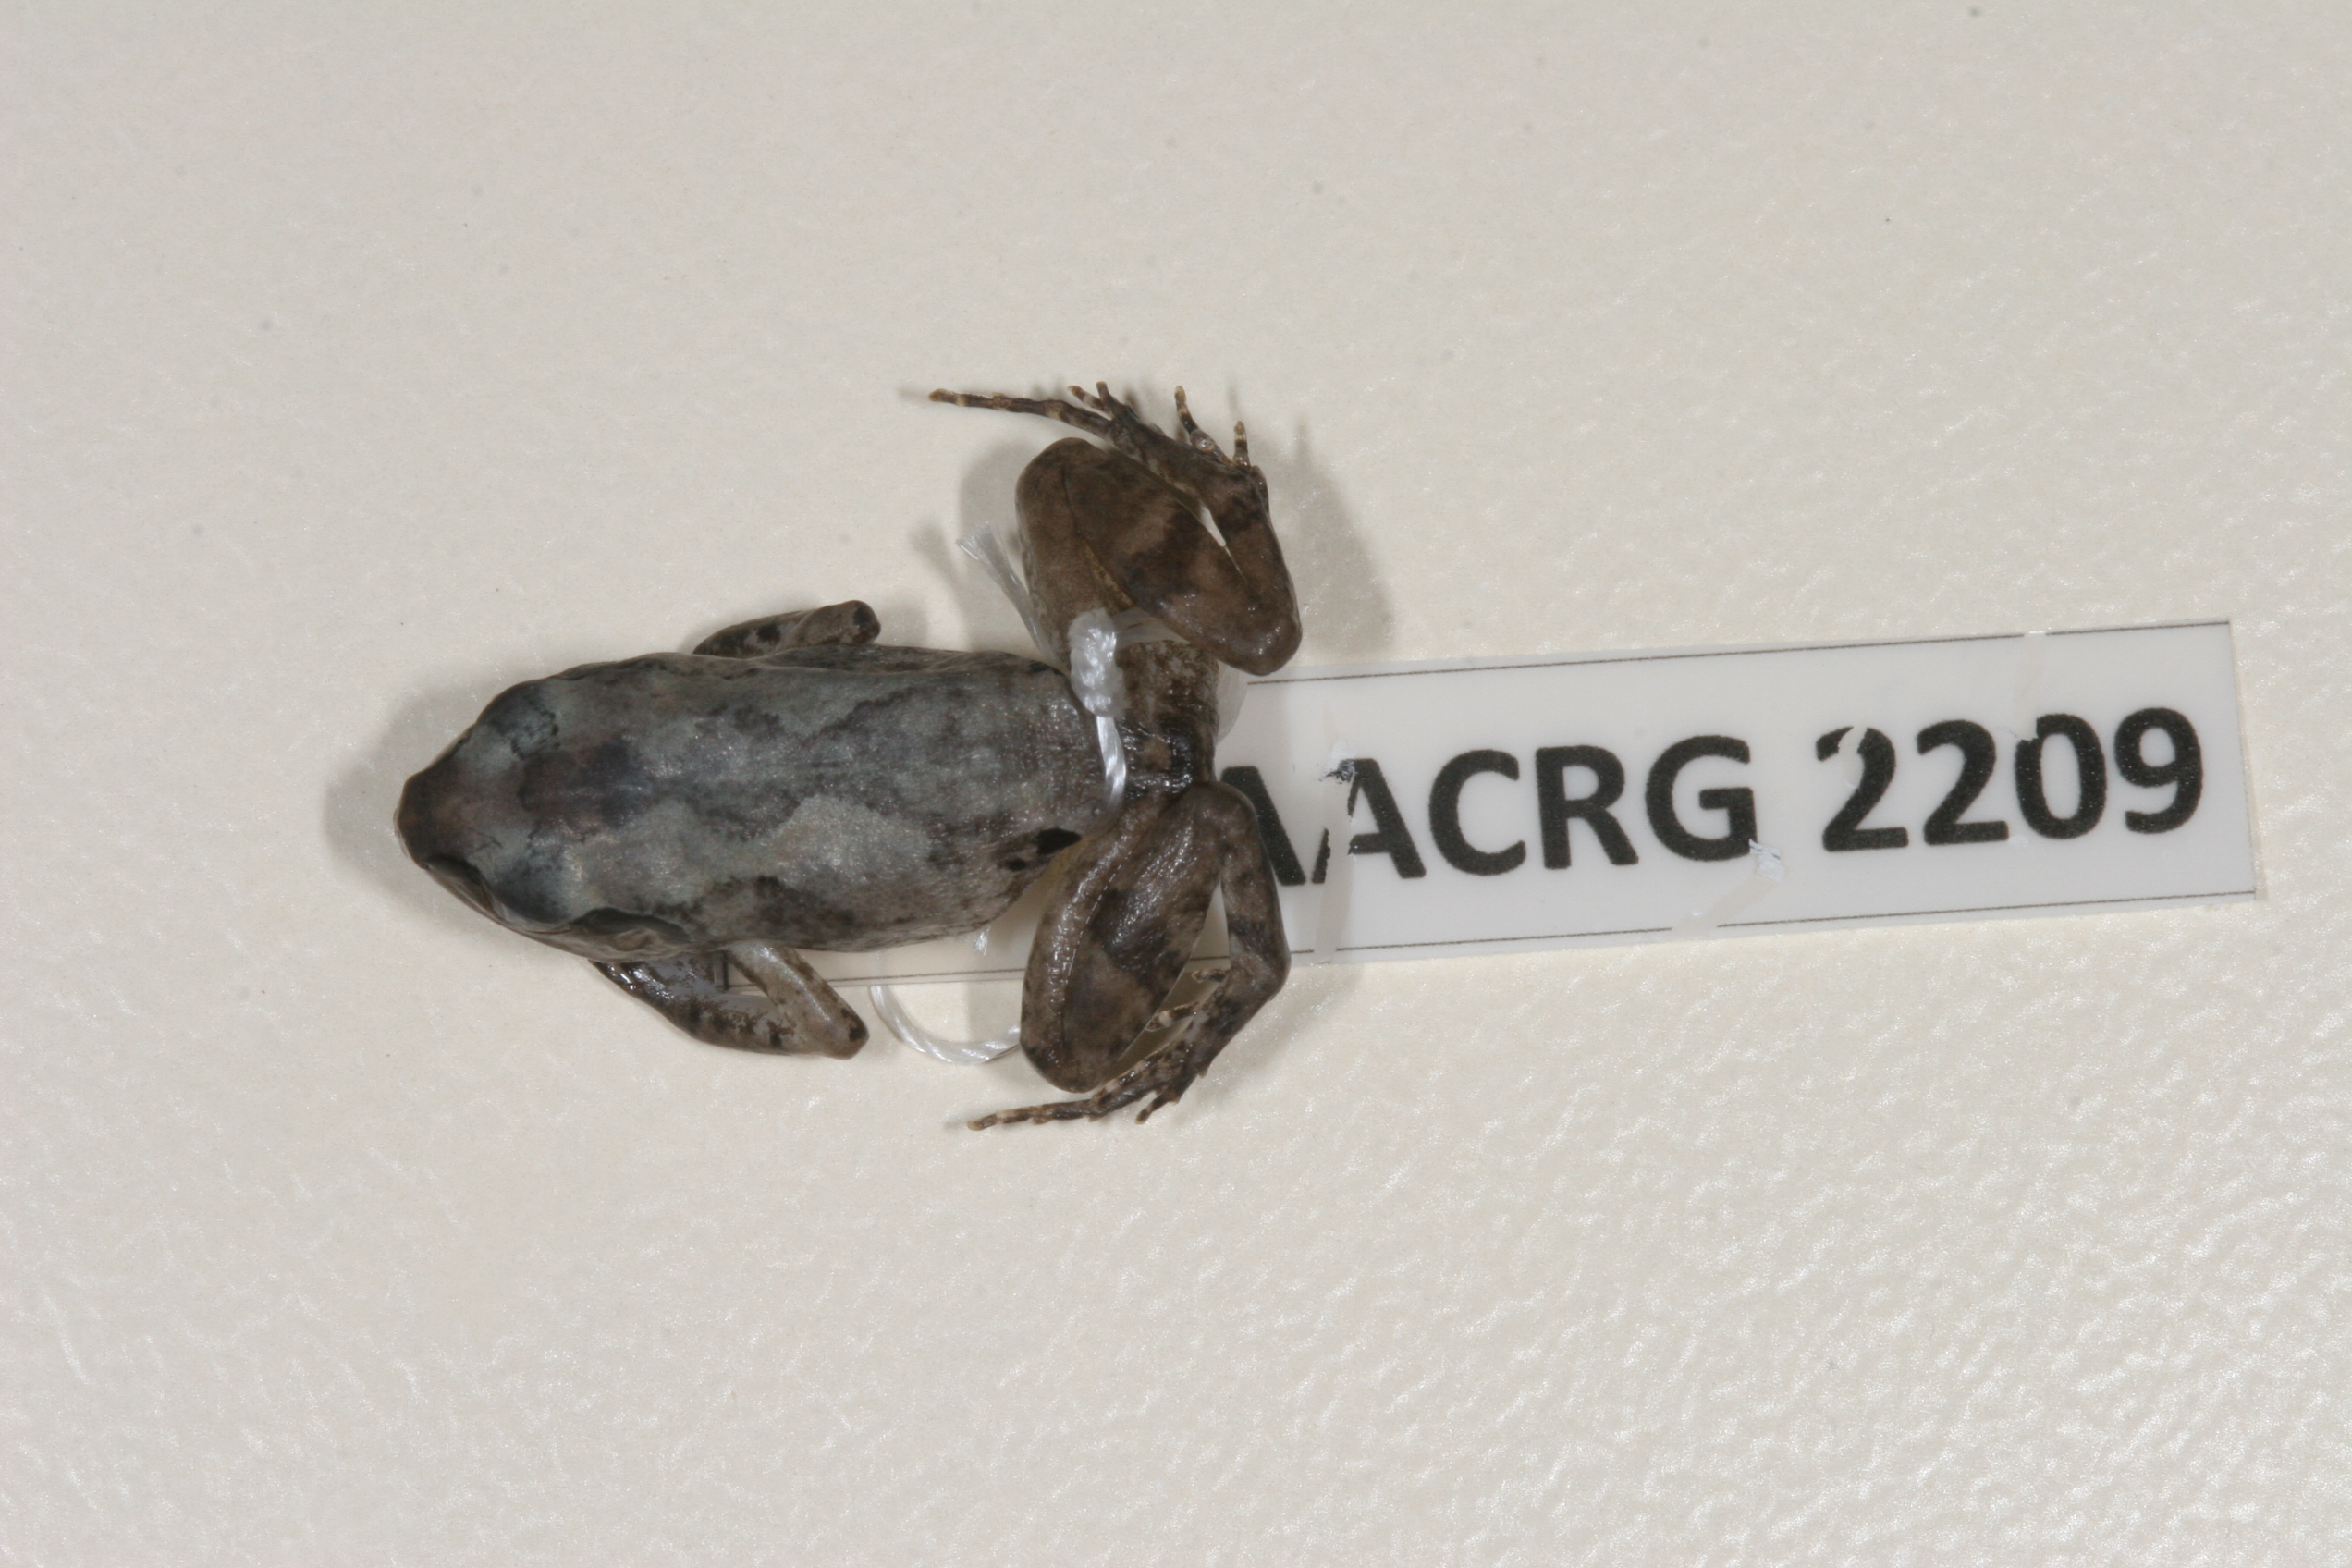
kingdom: Animalia
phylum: Chordata
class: Amphibia
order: Anura
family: Arthroleptidae
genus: Arthroleptis
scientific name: Arthroleptis wahlbergii
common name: Bush squeaker
